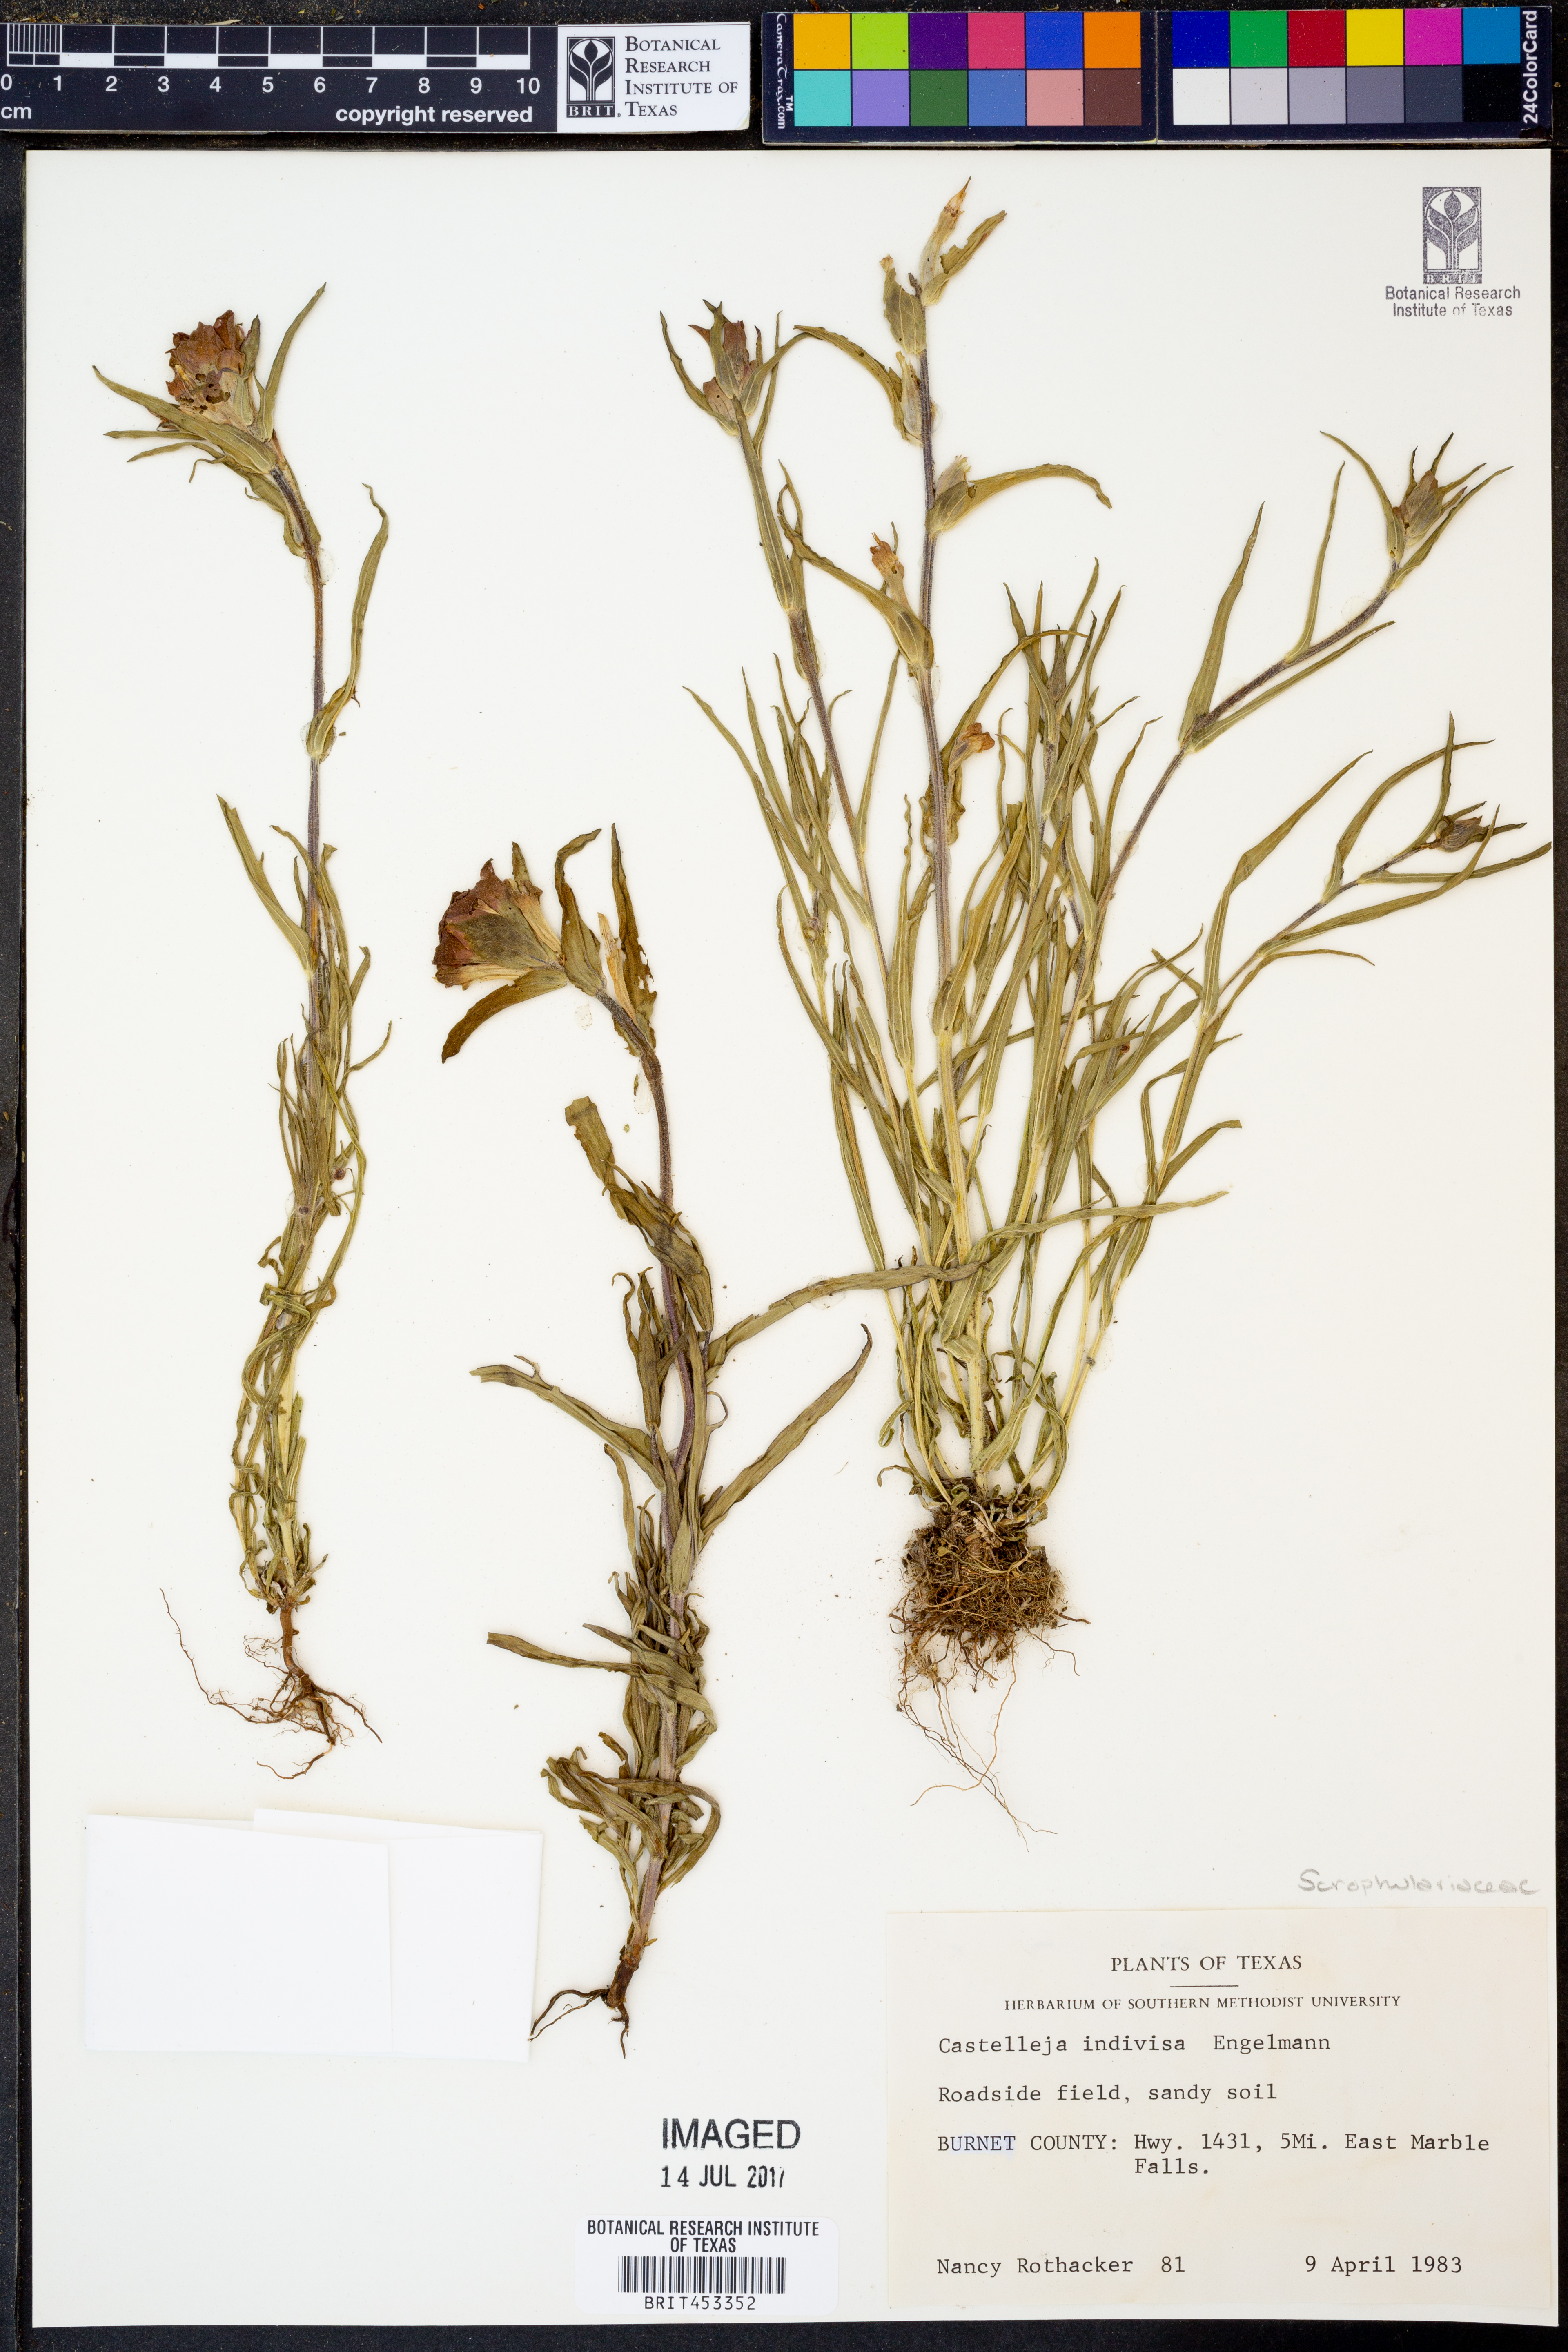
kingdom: Plantae
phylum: Tracheophyta
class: Magnoliopsida
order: Lamiales
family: Orobanchaceae
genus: Castilleja
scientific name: Castilleja indivisa
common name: Texas paintbrush
